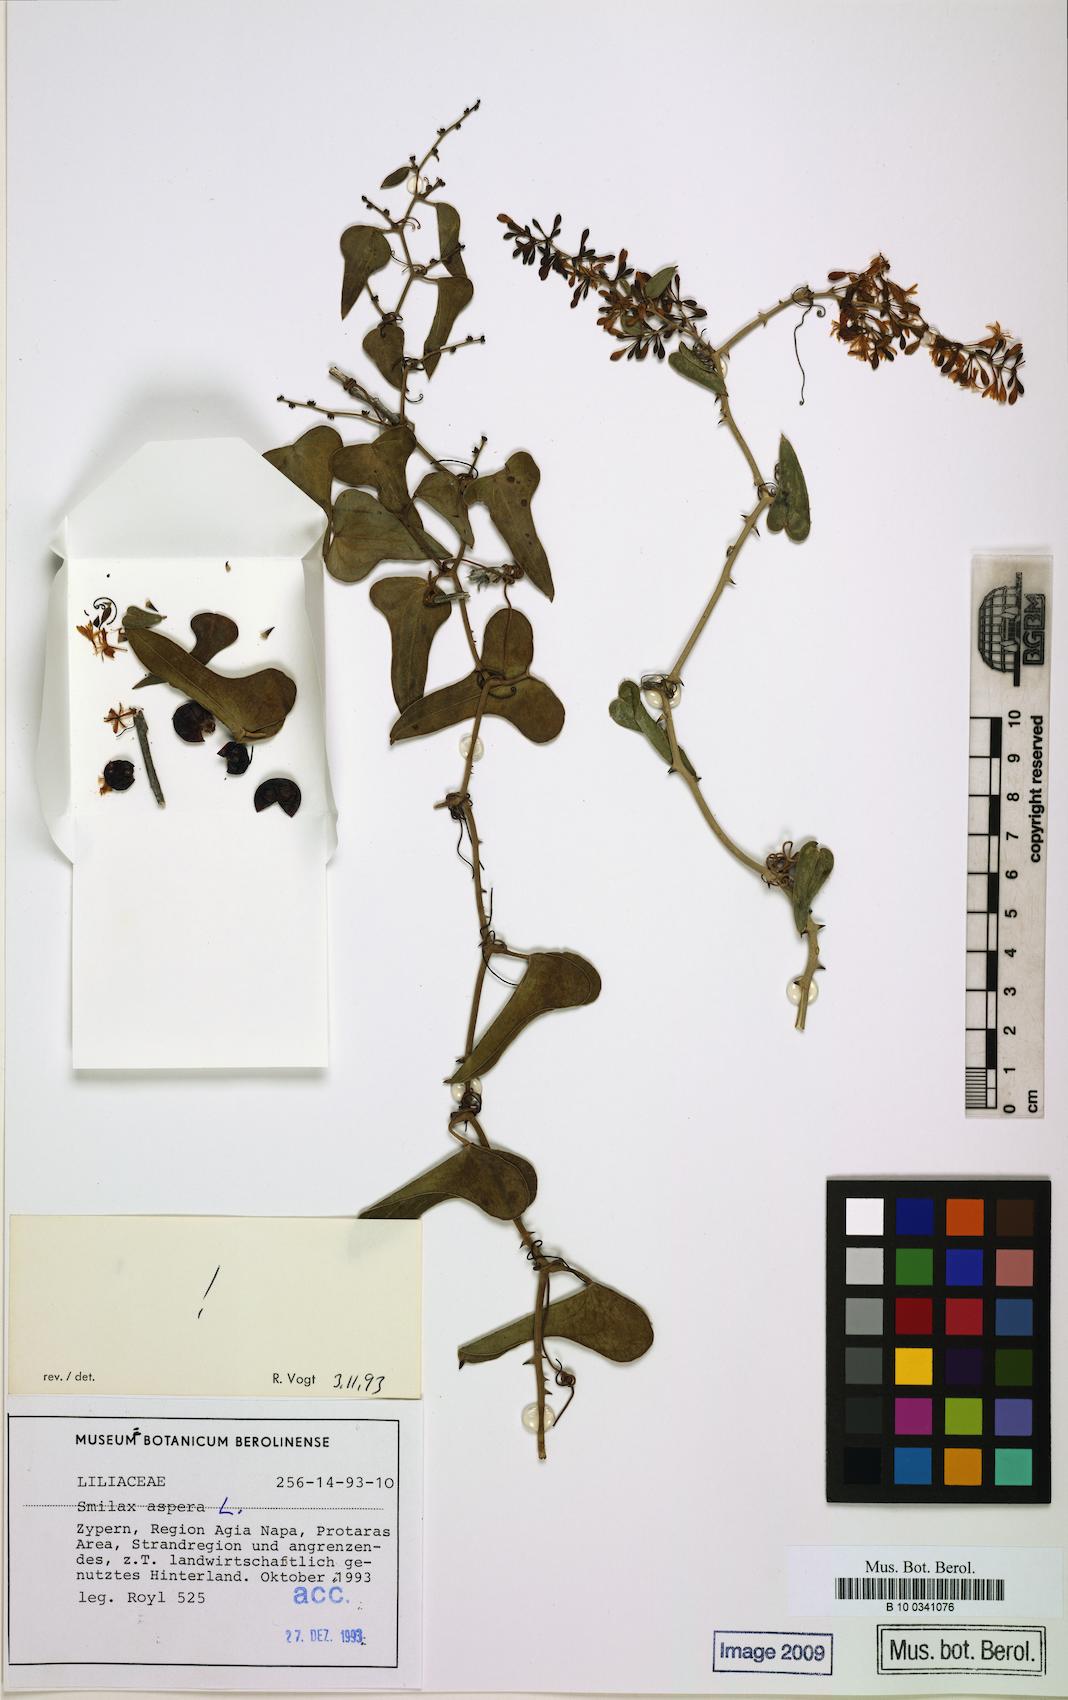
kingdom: Plantae
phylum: Tracheophyta
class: Liliopsida
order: Liliales
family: Smilacaceae
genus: Smilax
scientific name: Smilax aspera
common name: Common smilax
